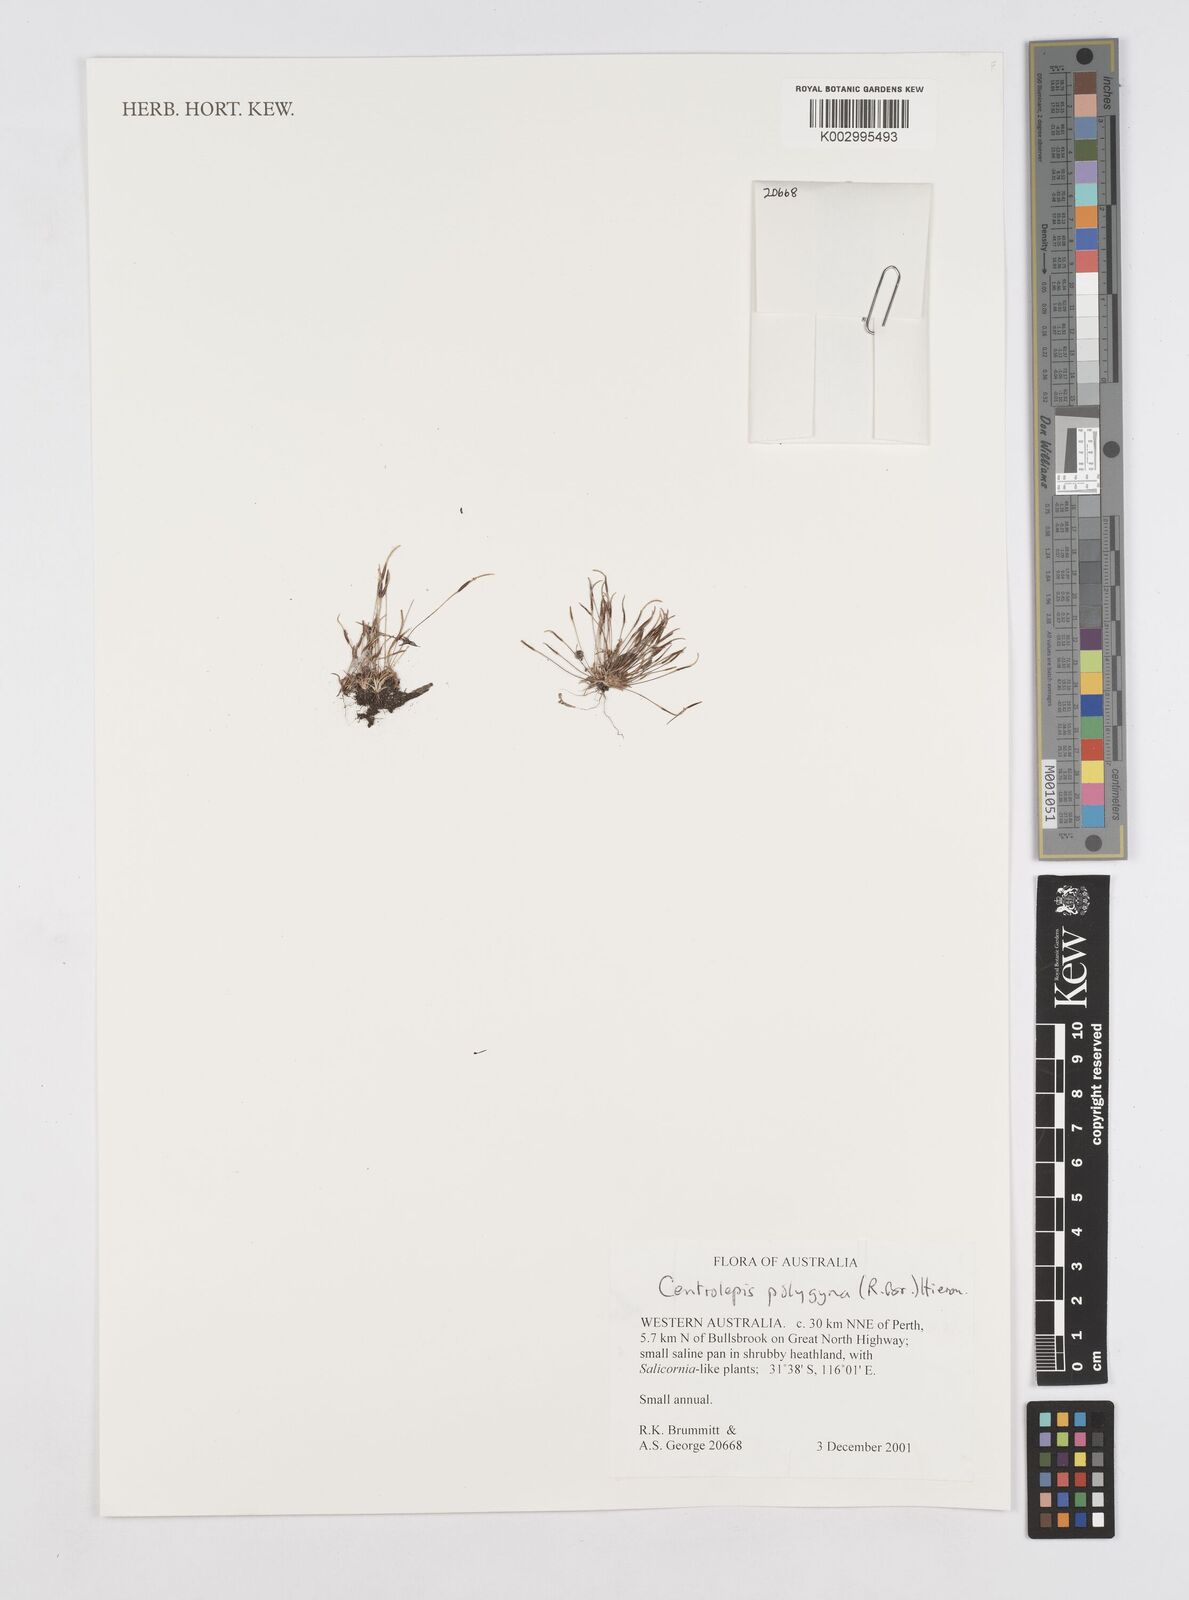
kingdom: Plantae
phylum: Tracheophyta
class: Liliopsida
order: Poales
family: Restionaceae
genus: Centrolepis
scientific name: Centrolepis polygyna
